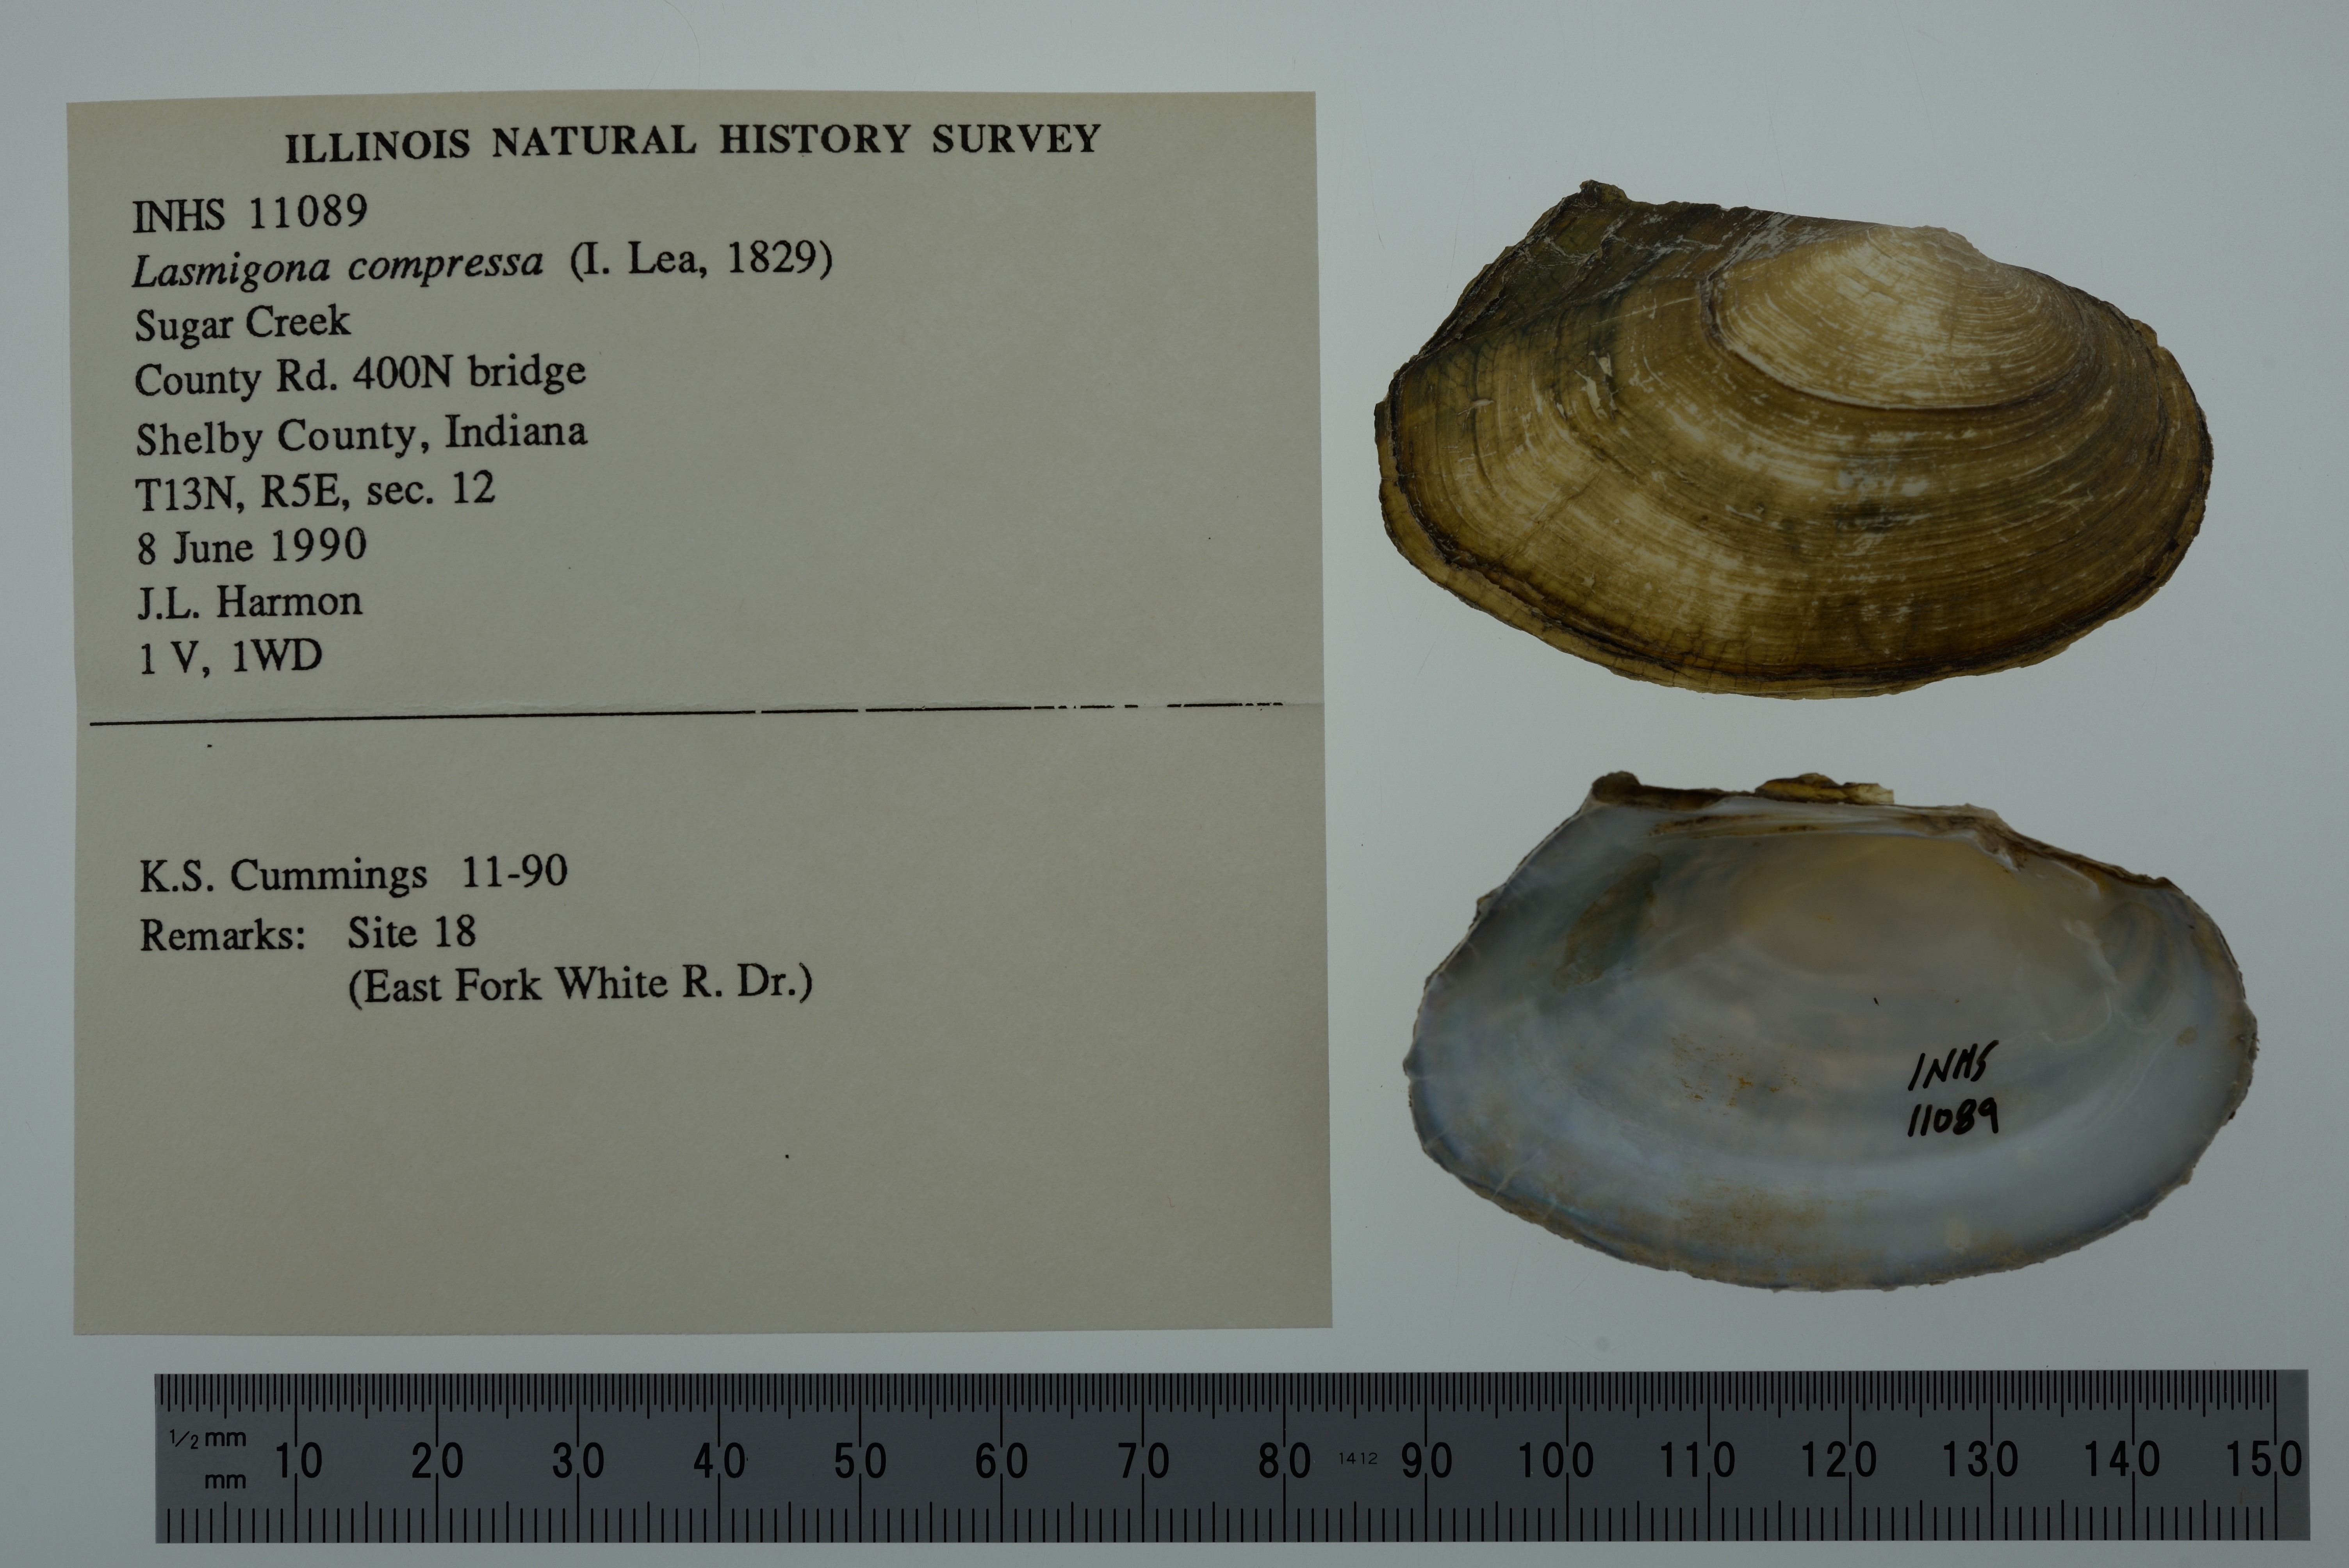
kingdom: Animalia
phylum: Mollusca
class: Bivalvia
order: Unionida
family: Unionidae
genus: Lasmigona
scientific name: Lasmigona compressa
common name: Creek heelsplitter
